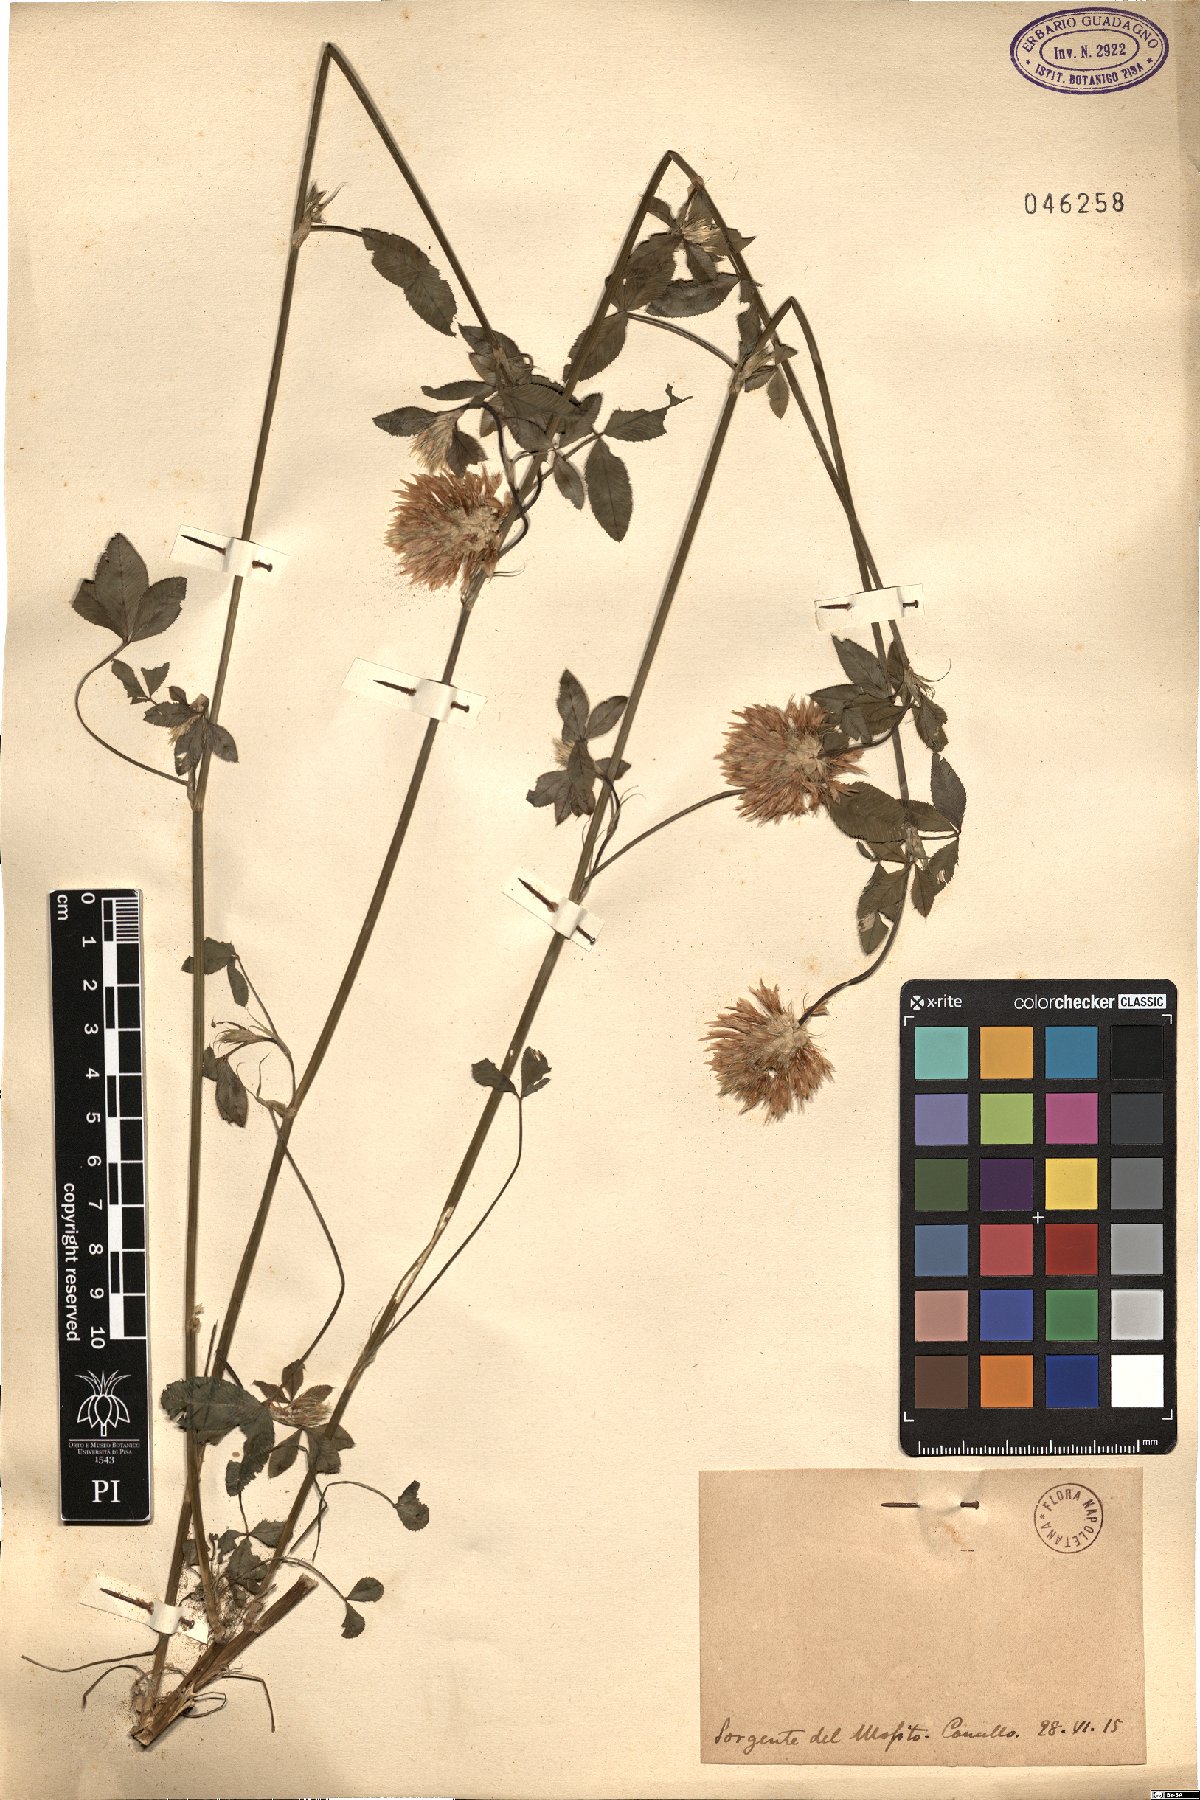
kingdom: Plantae
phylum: Tracheophyta
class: Magnoliopsida
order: Fabales
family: Fabaceae
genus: Trifolium
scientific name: Trifolium
